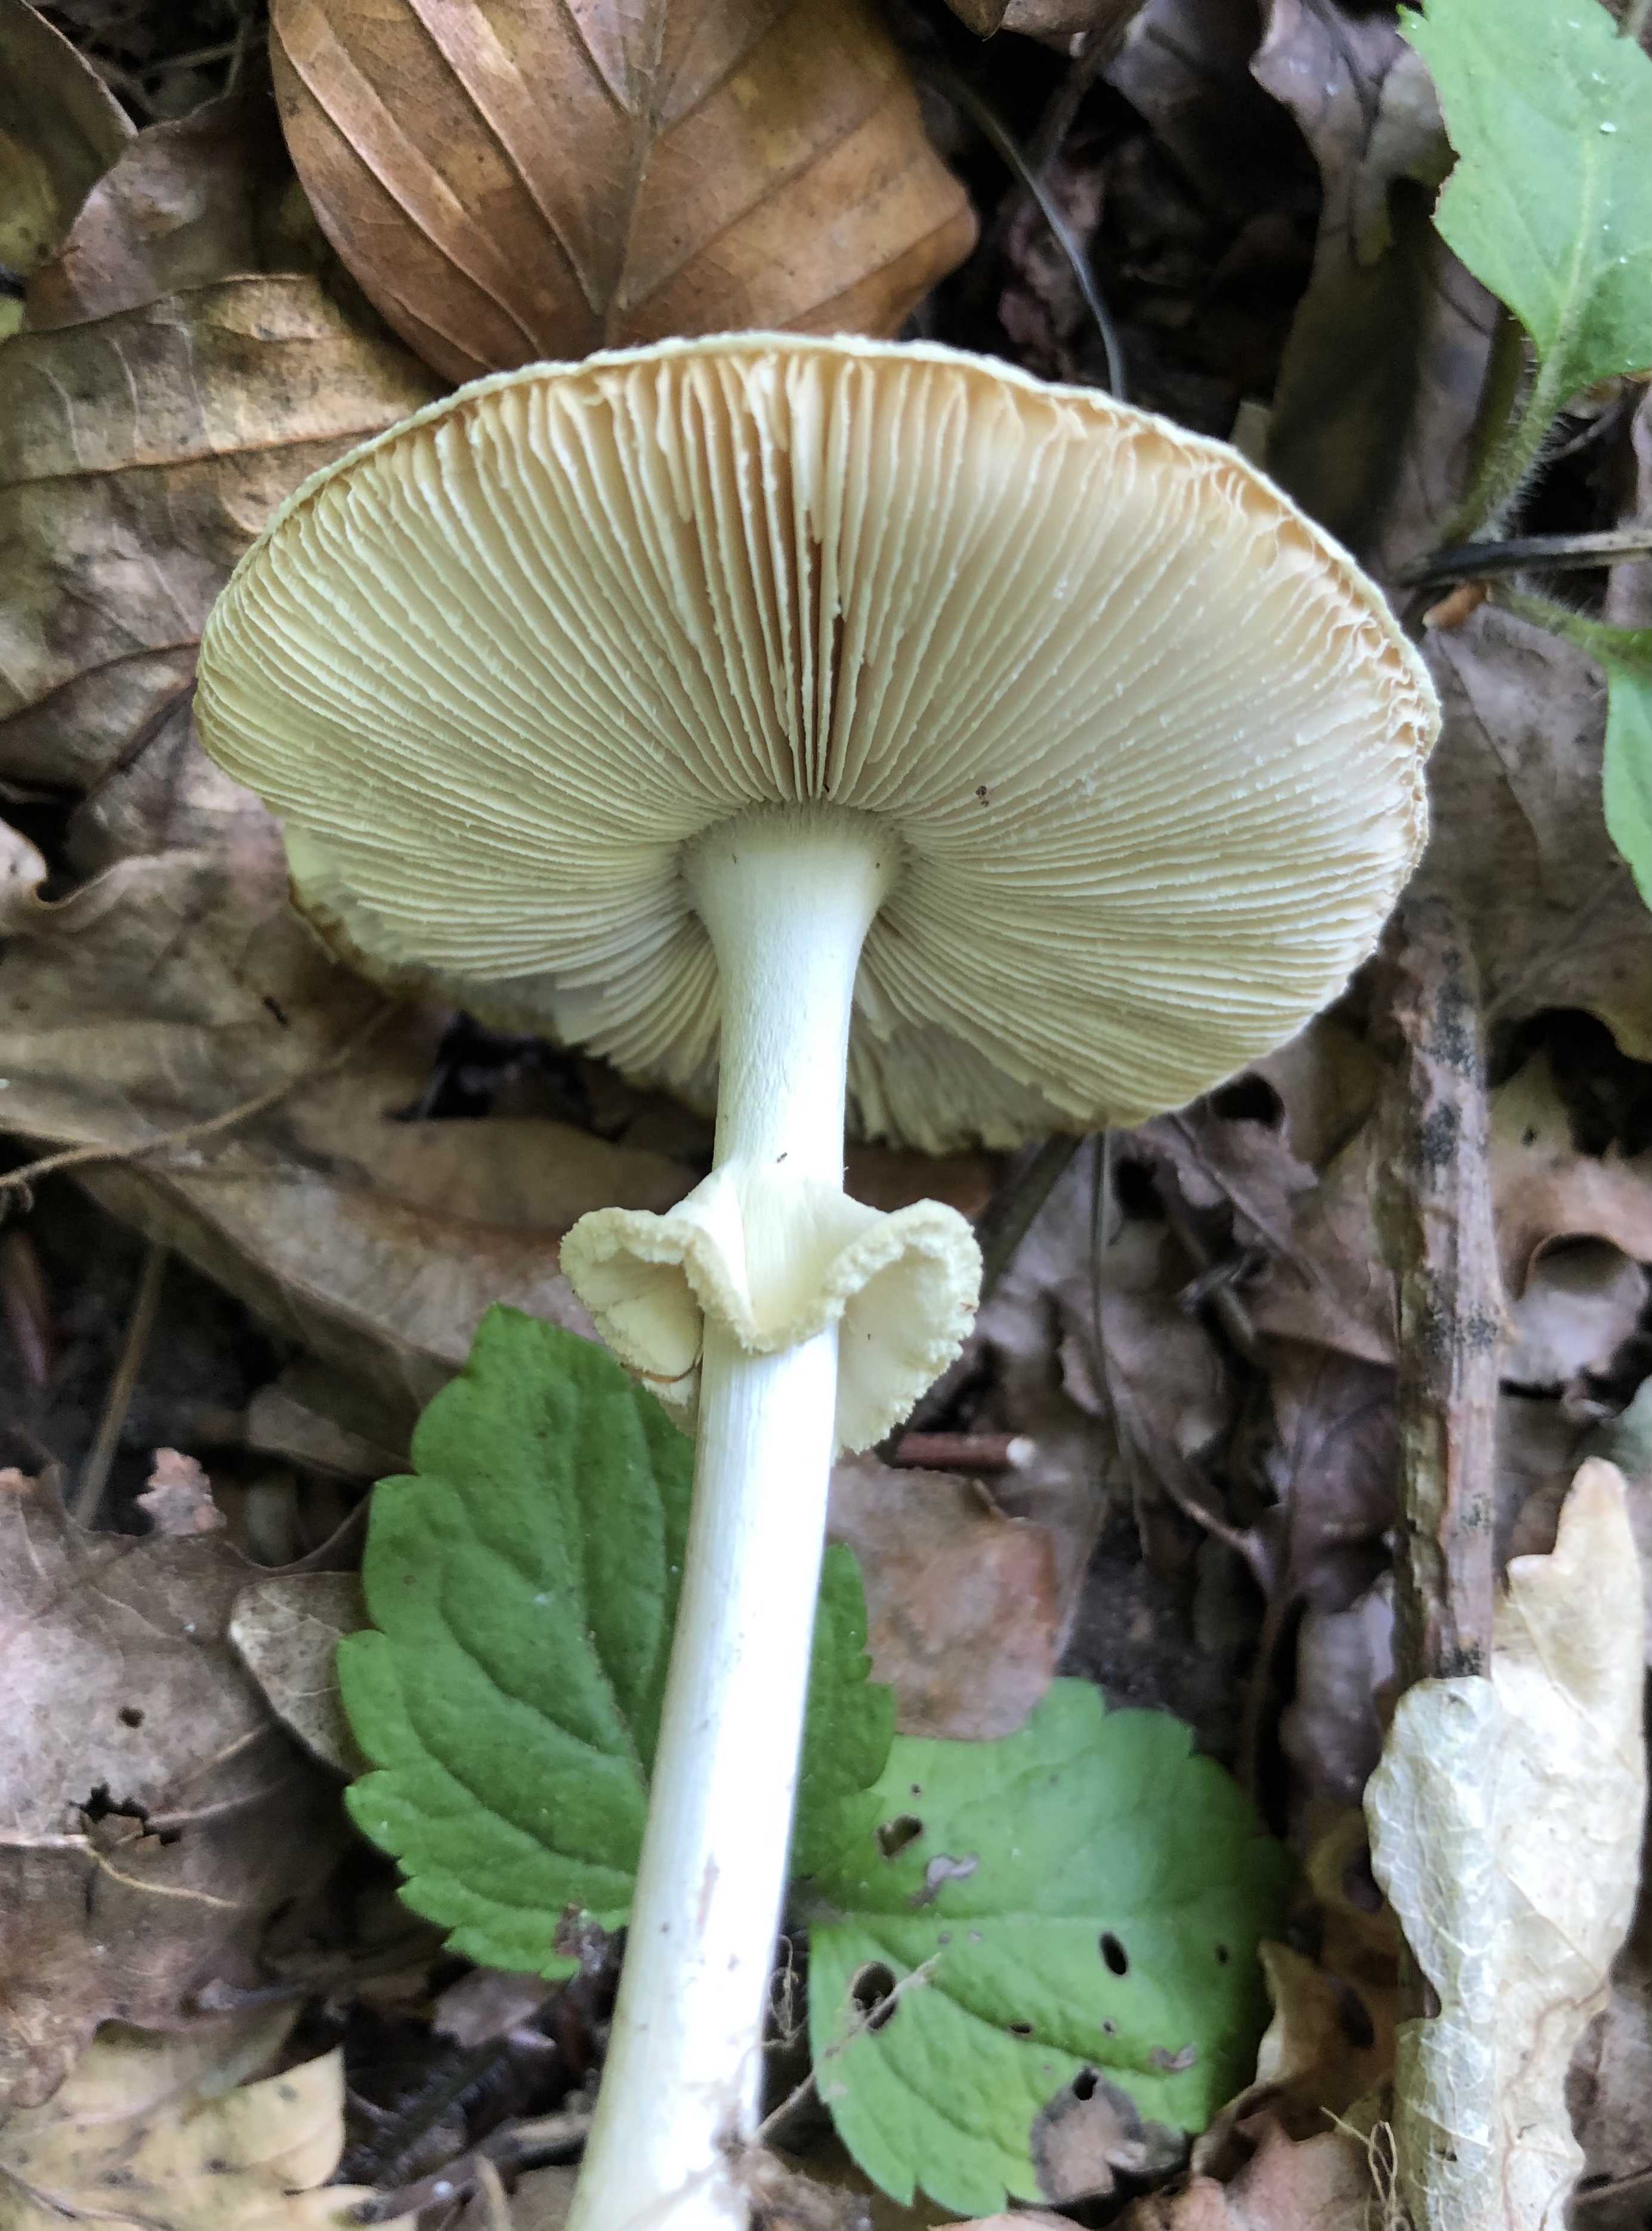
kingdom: Fungi
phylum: Basidiomycota
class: Agaricomycetes
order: Agaricales
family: Amanitaceae
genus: Amanita
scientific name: Amanita citrina
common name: kugleknoldet fluesvamp
